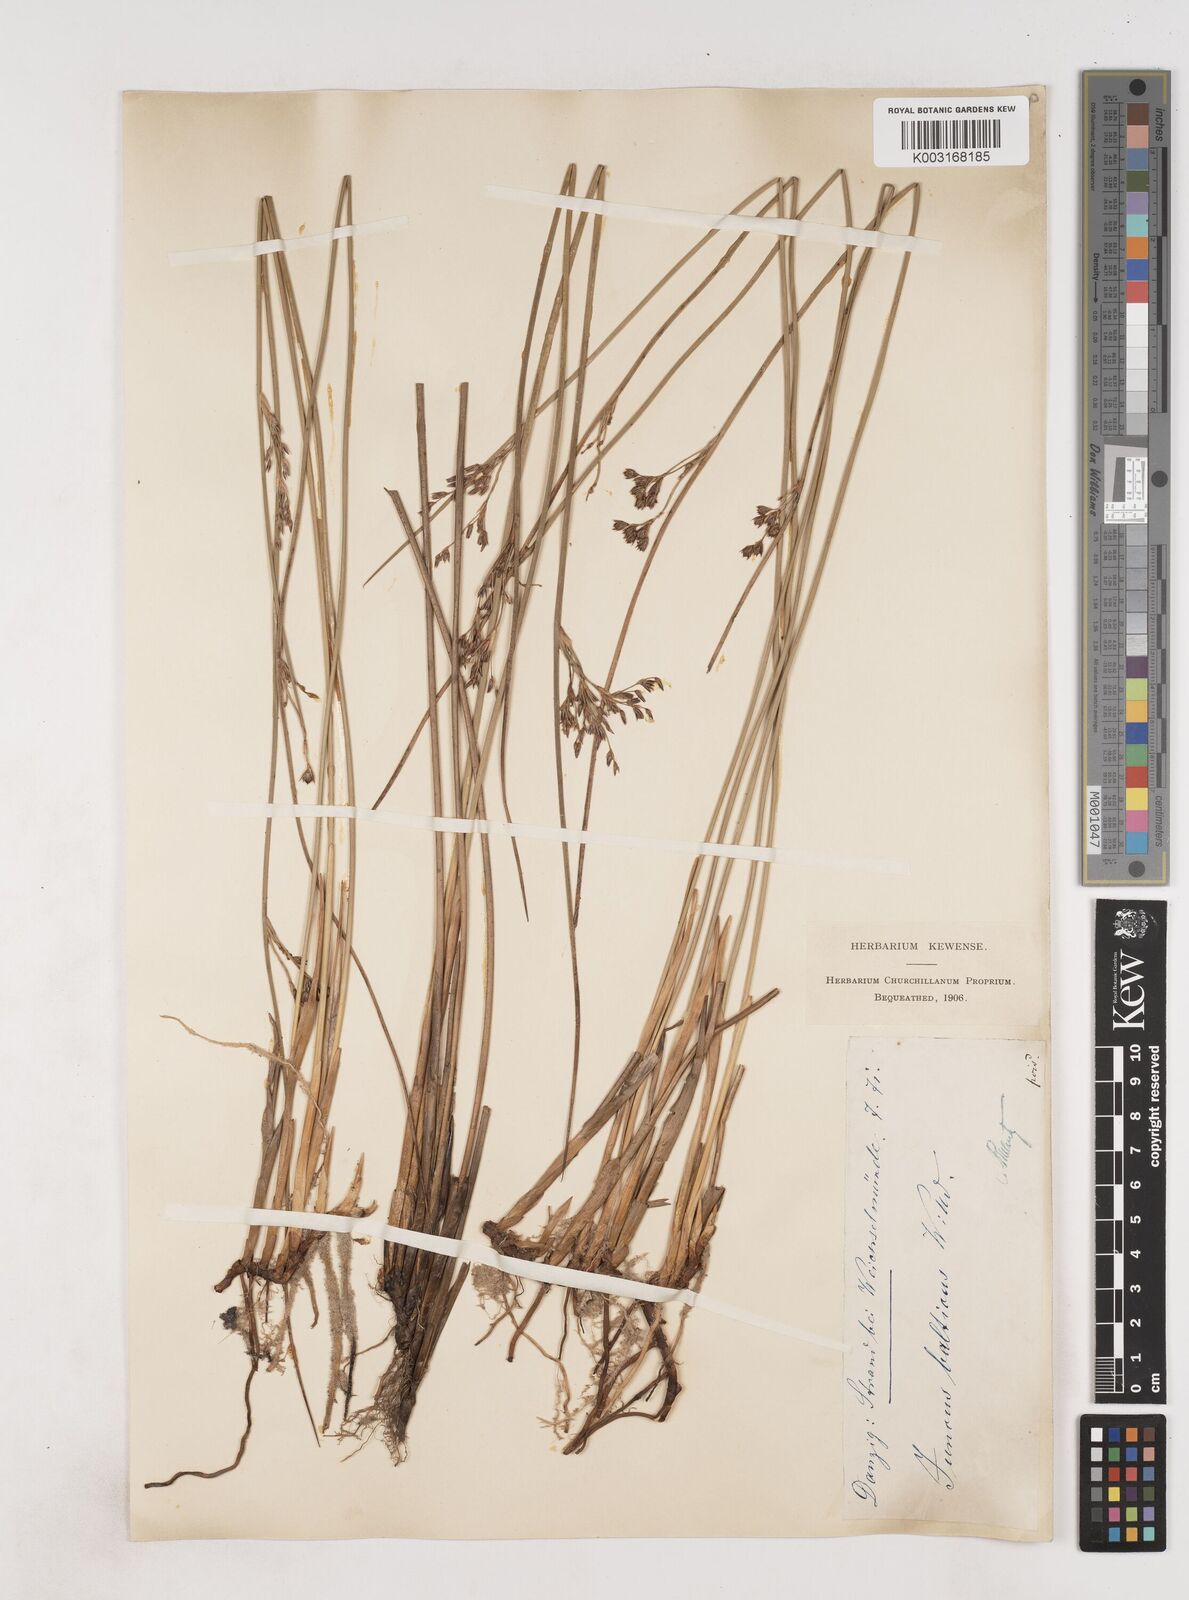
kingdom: Plantae
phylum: Tracheophyta
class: Liliopsida
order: Poales
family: Juncaceae
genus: Juncus
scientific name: Juncus balticus
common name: Baltic rush
